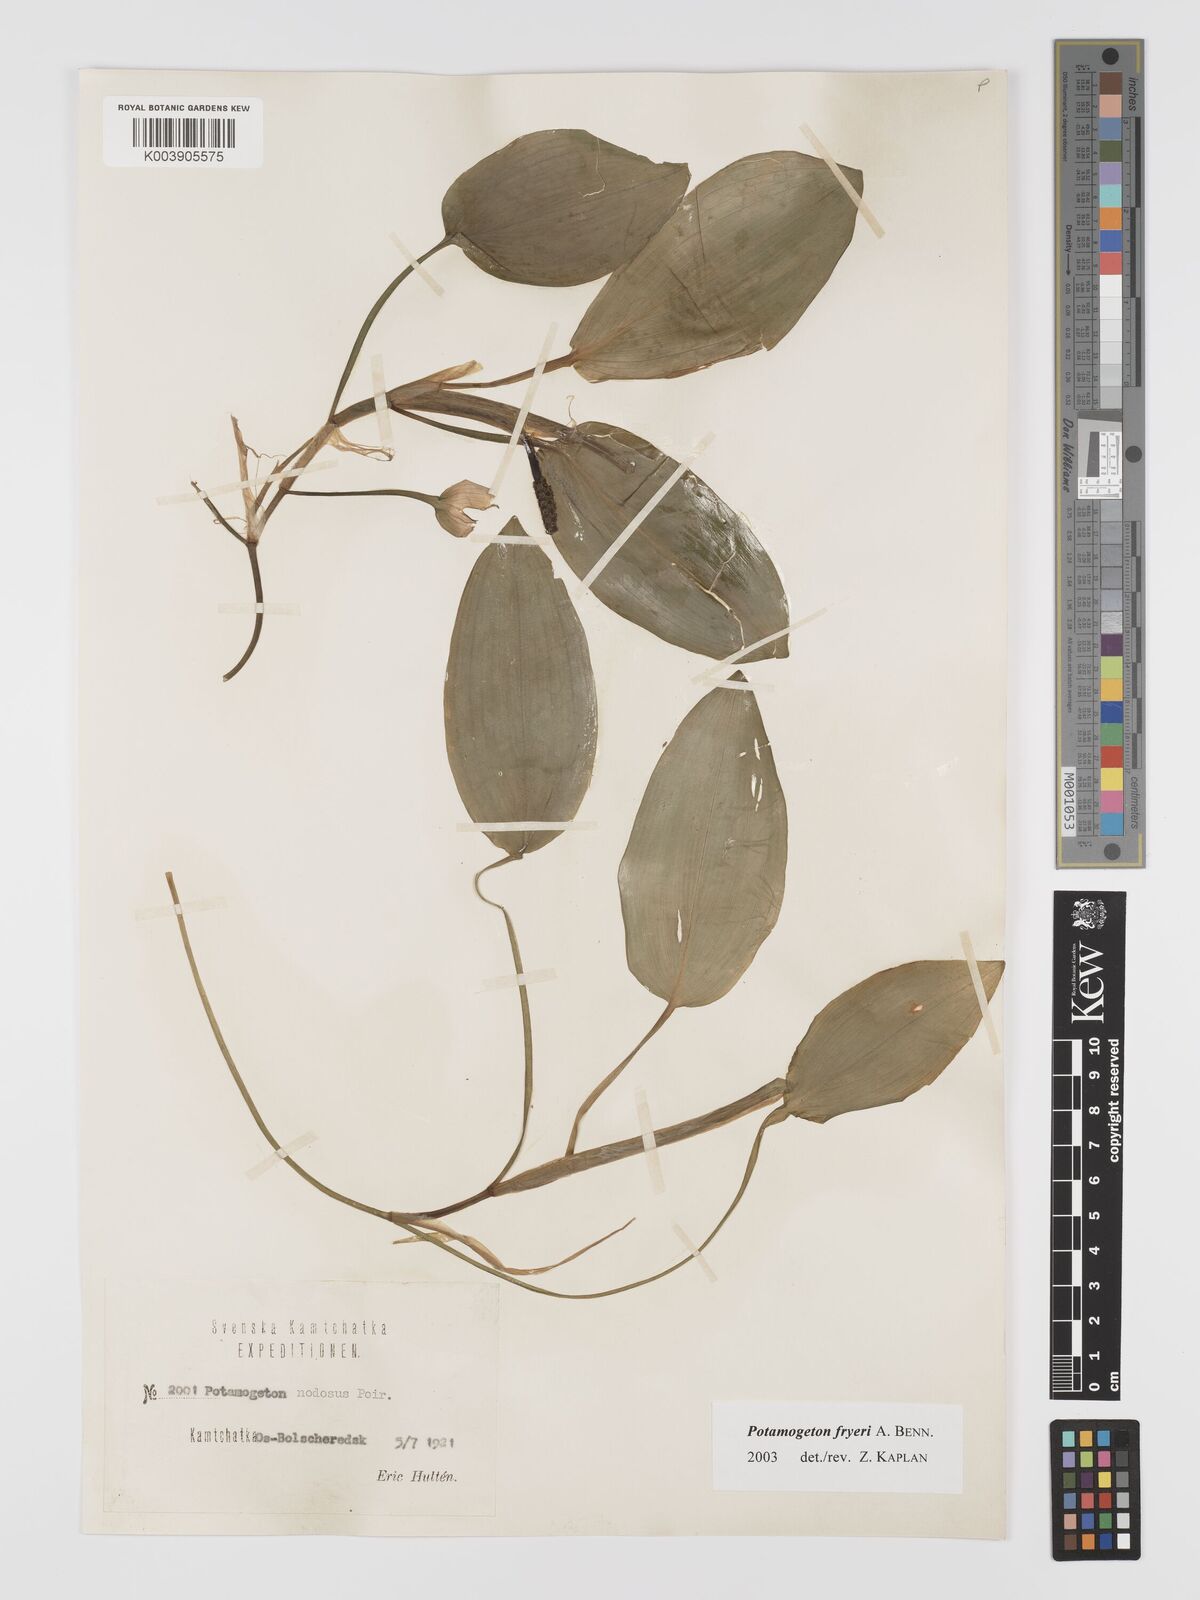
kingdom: Plantae
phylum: Tracheophyta
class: Liliopsida
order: Alismatales
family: Potamogetonaceae
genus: Potamogeton
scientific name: Potamogeton fryeri
